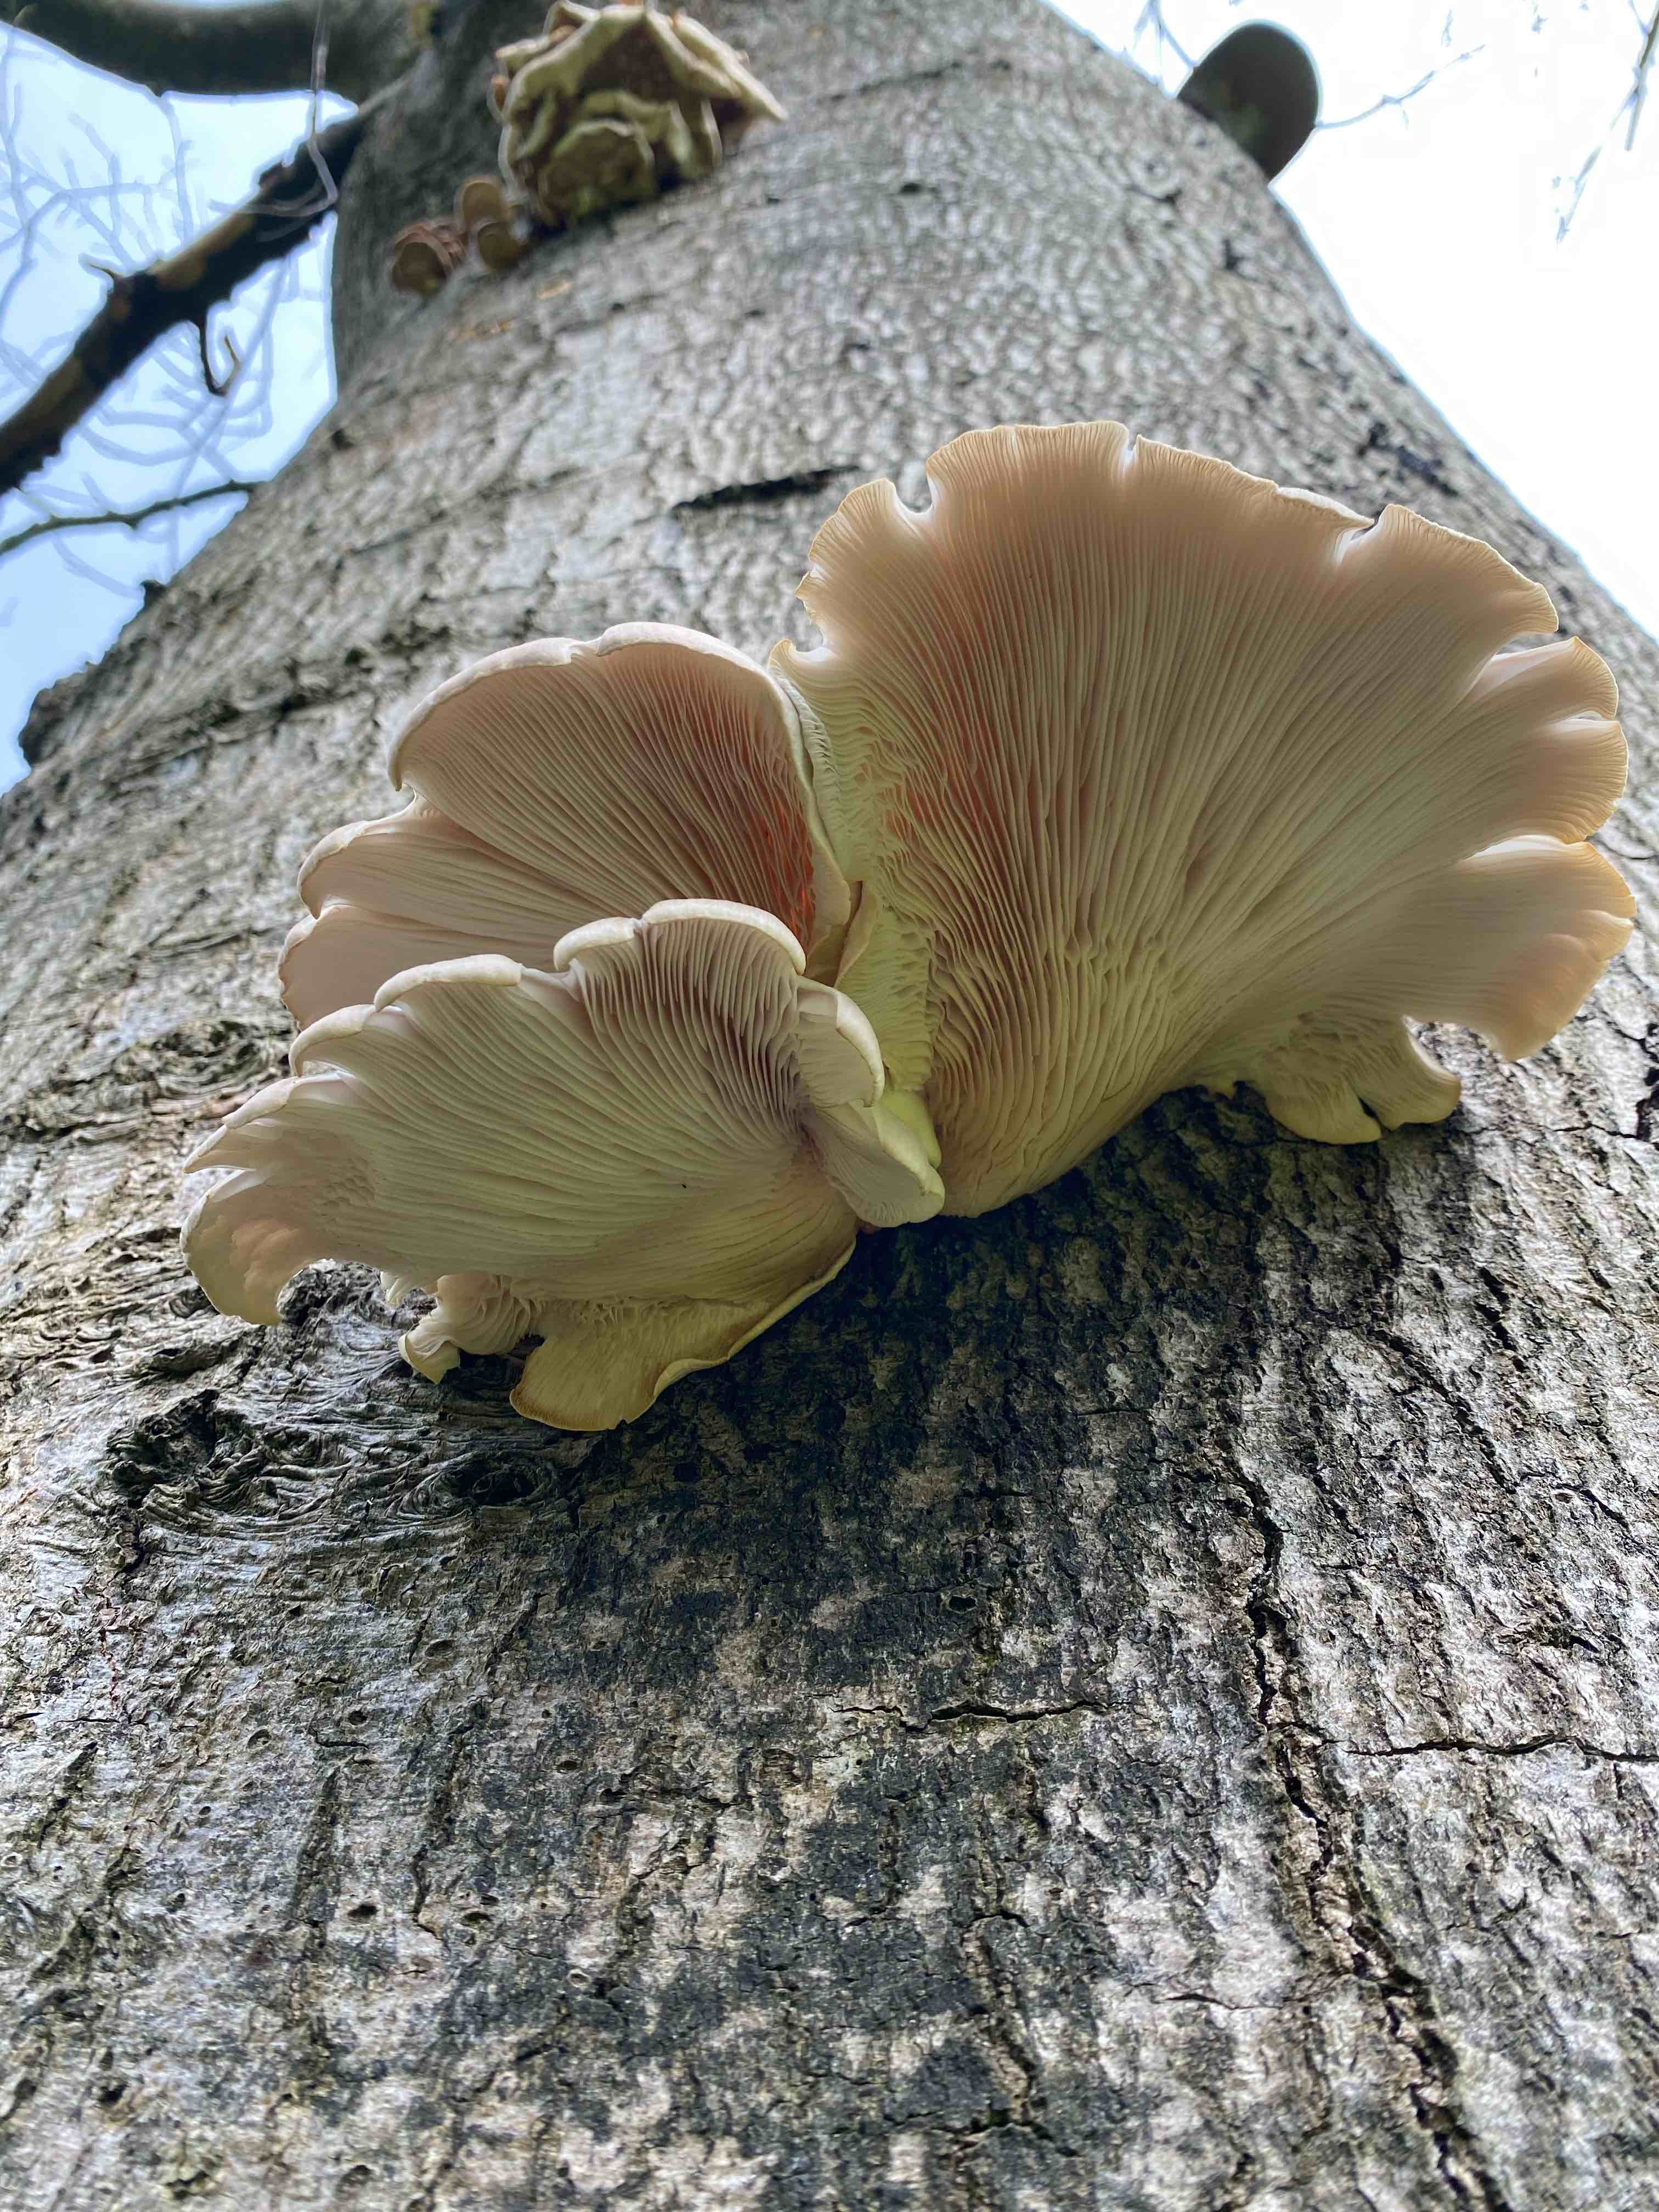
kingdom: Fungi
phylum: Basidiomycota
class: Agaricomycetes
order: Agaricales
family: Pleurotaceae
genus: Pleurotus
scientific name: Pleurotus pulmonarius
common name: sommer-østershat
